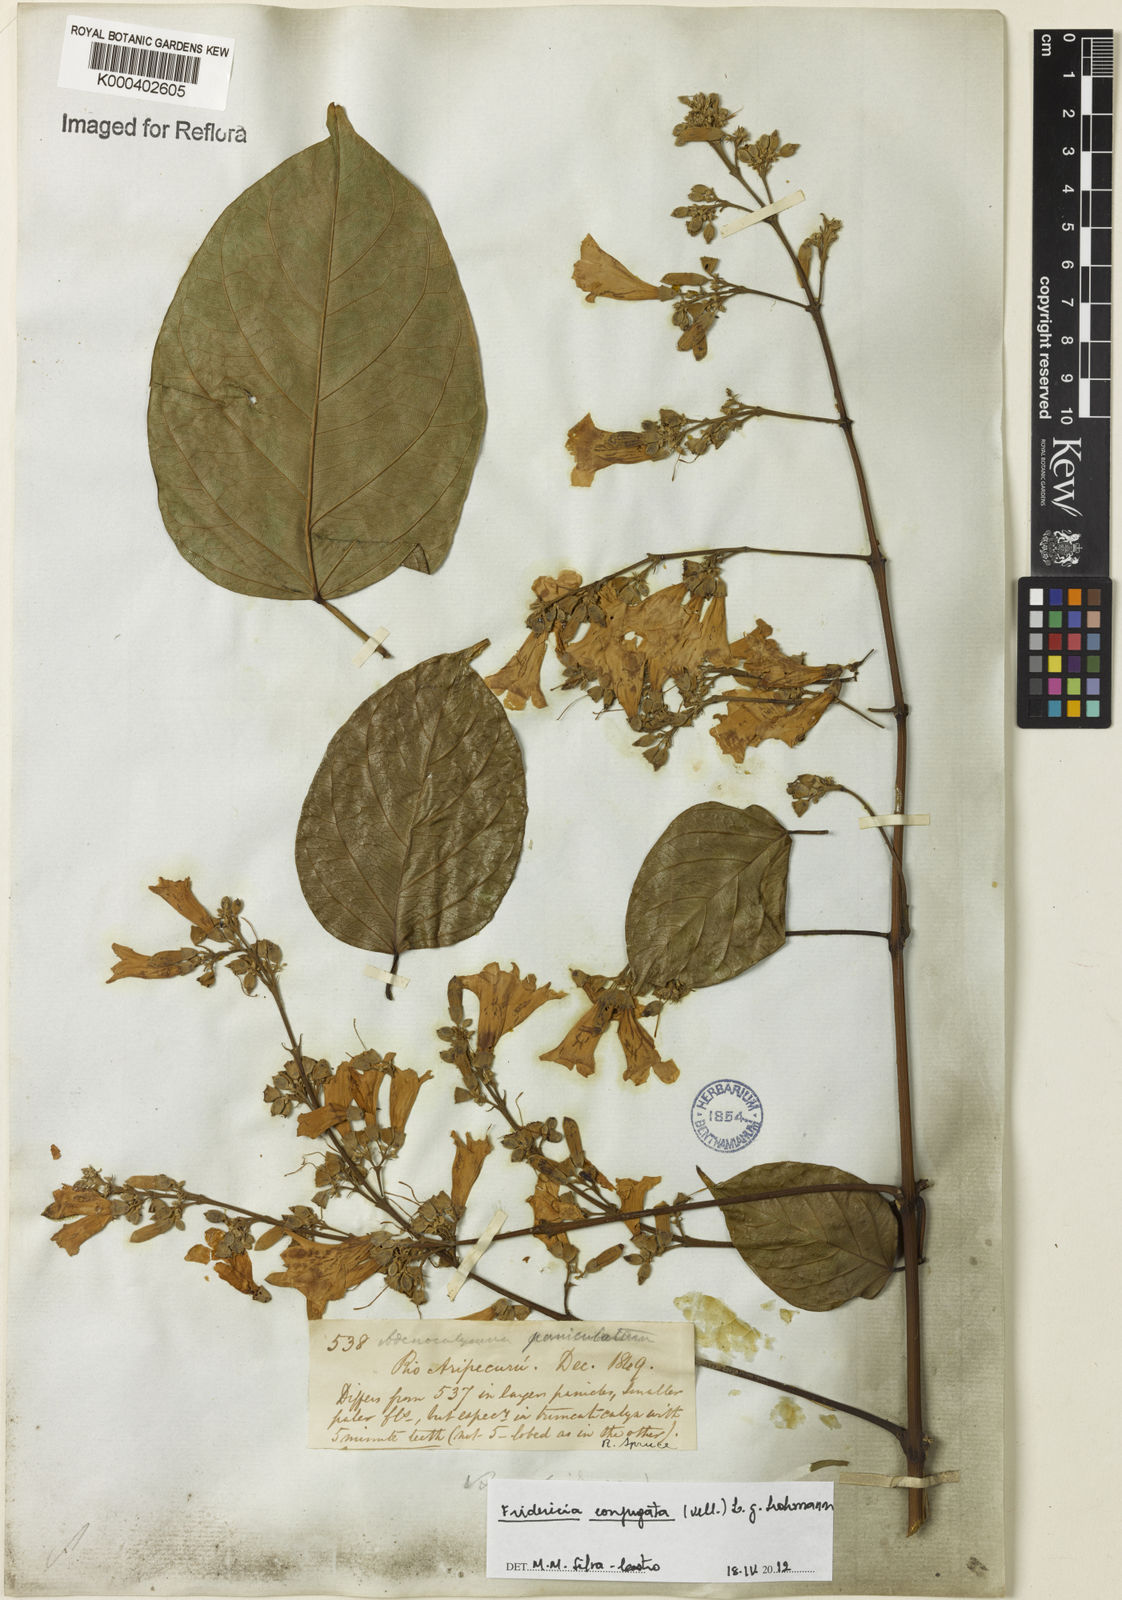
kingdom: Plantae
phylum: Tracheophyta
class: Magnoliopsida
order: Lamiales
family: Bignoniaceae
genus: Fridericia
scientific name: Fridericia conjugata
